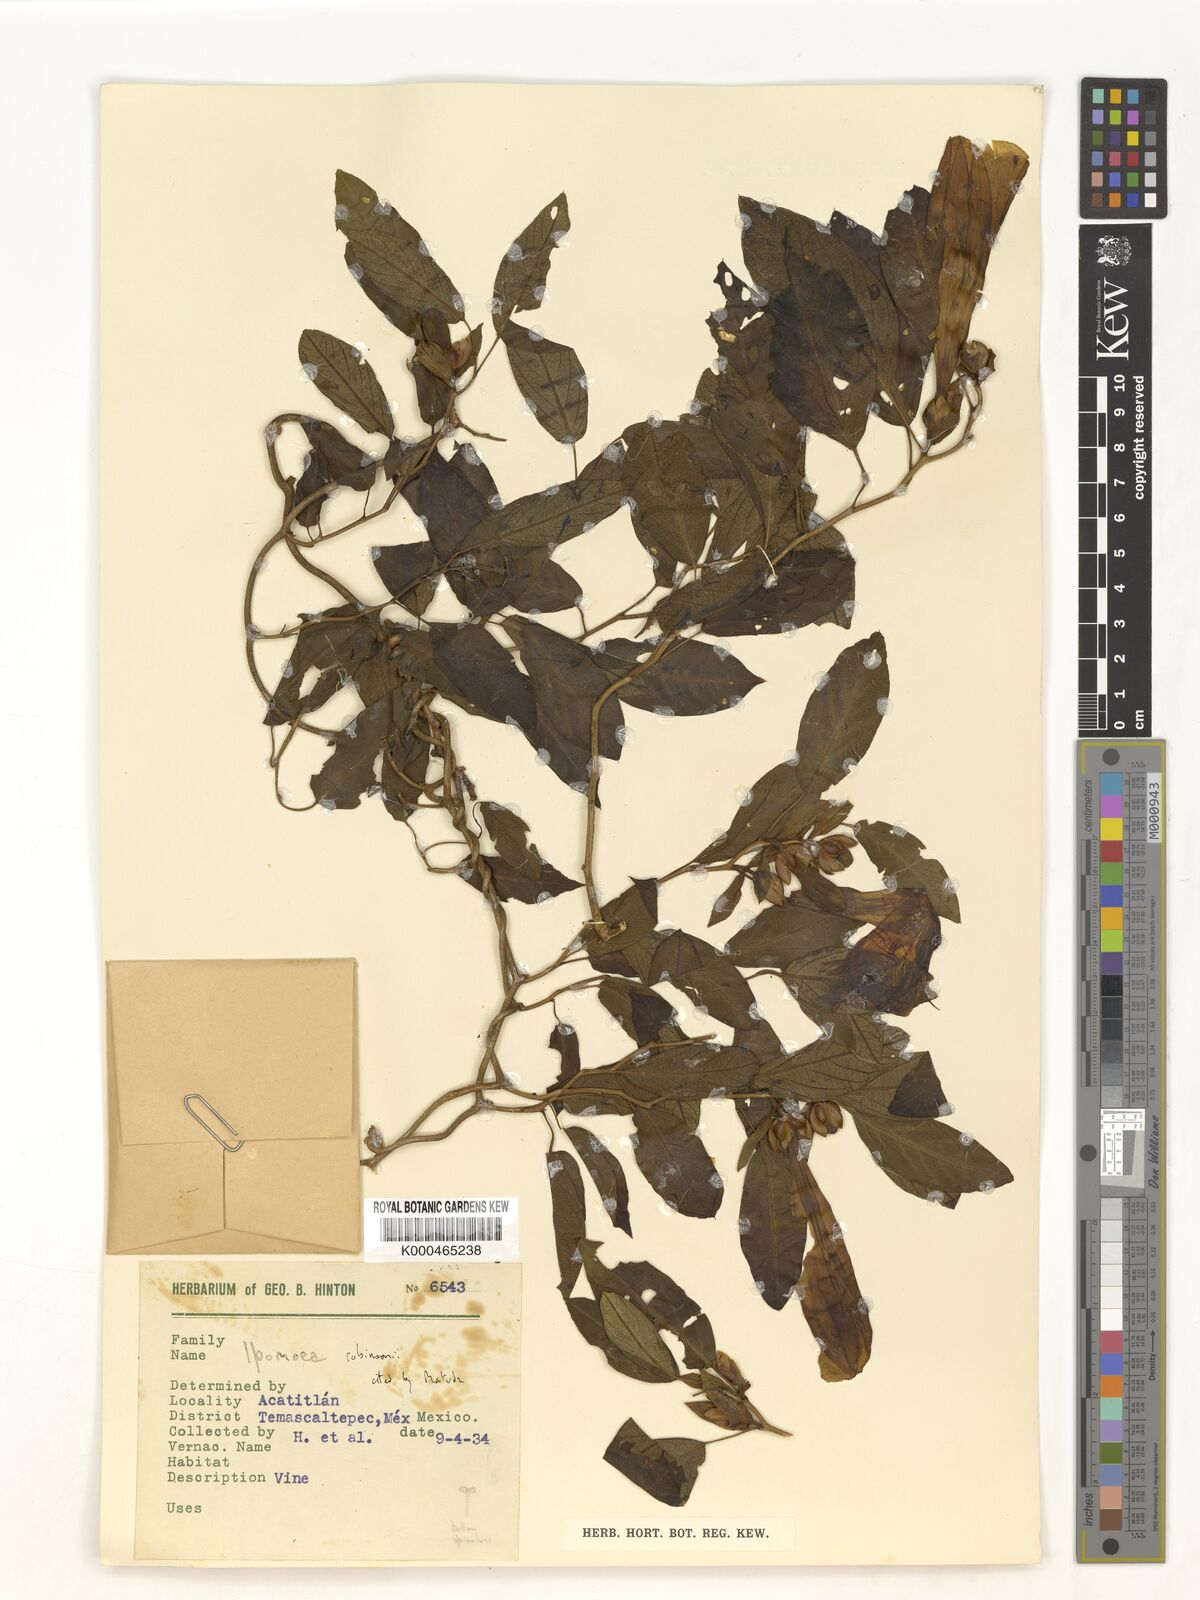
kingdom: Plantae
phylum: Tracheophyta
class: Magnoliopsida
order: Solanales
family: Convolvulaceae
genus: Ipomoea
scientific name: Ipomoea robinsonii
